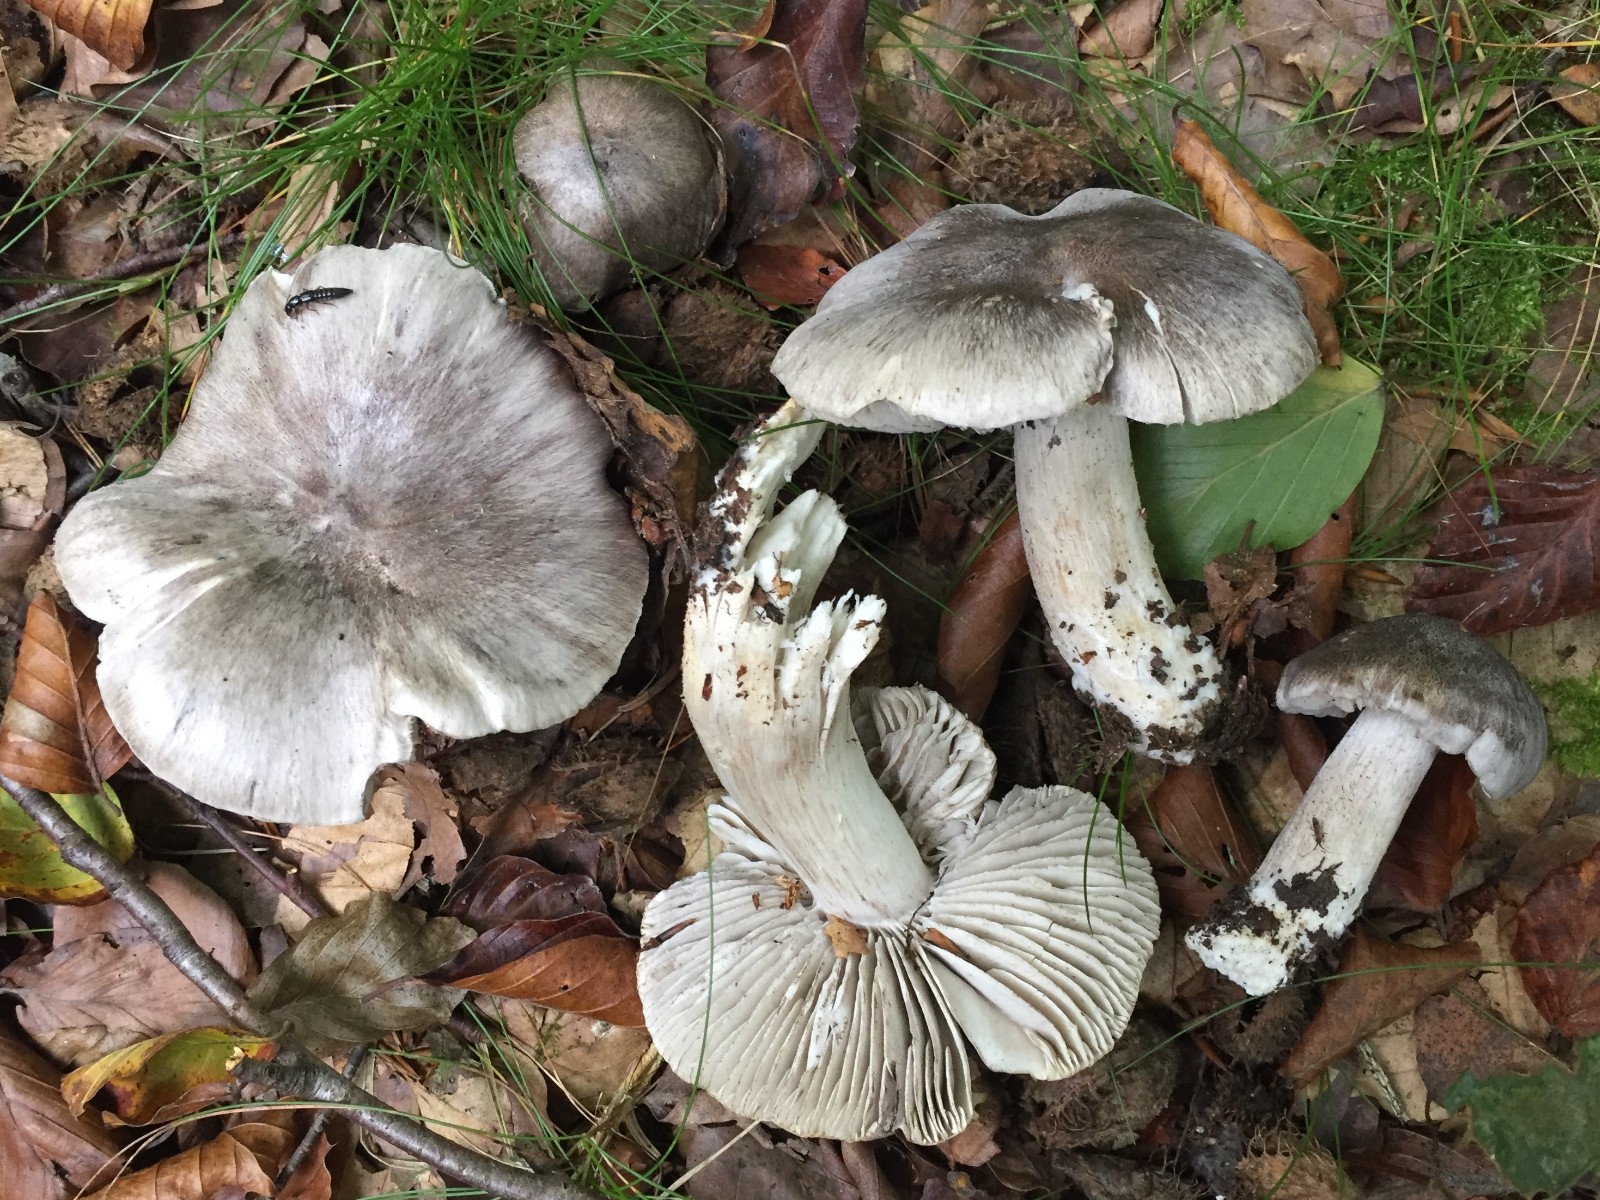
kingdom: Fungi
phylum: Basidiomycota
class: Agaricomycetes
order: Agaricales
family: Tricholomataceae
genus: Tricholoma
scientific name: Tricholoma sciodes
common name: stribet ridderhat
